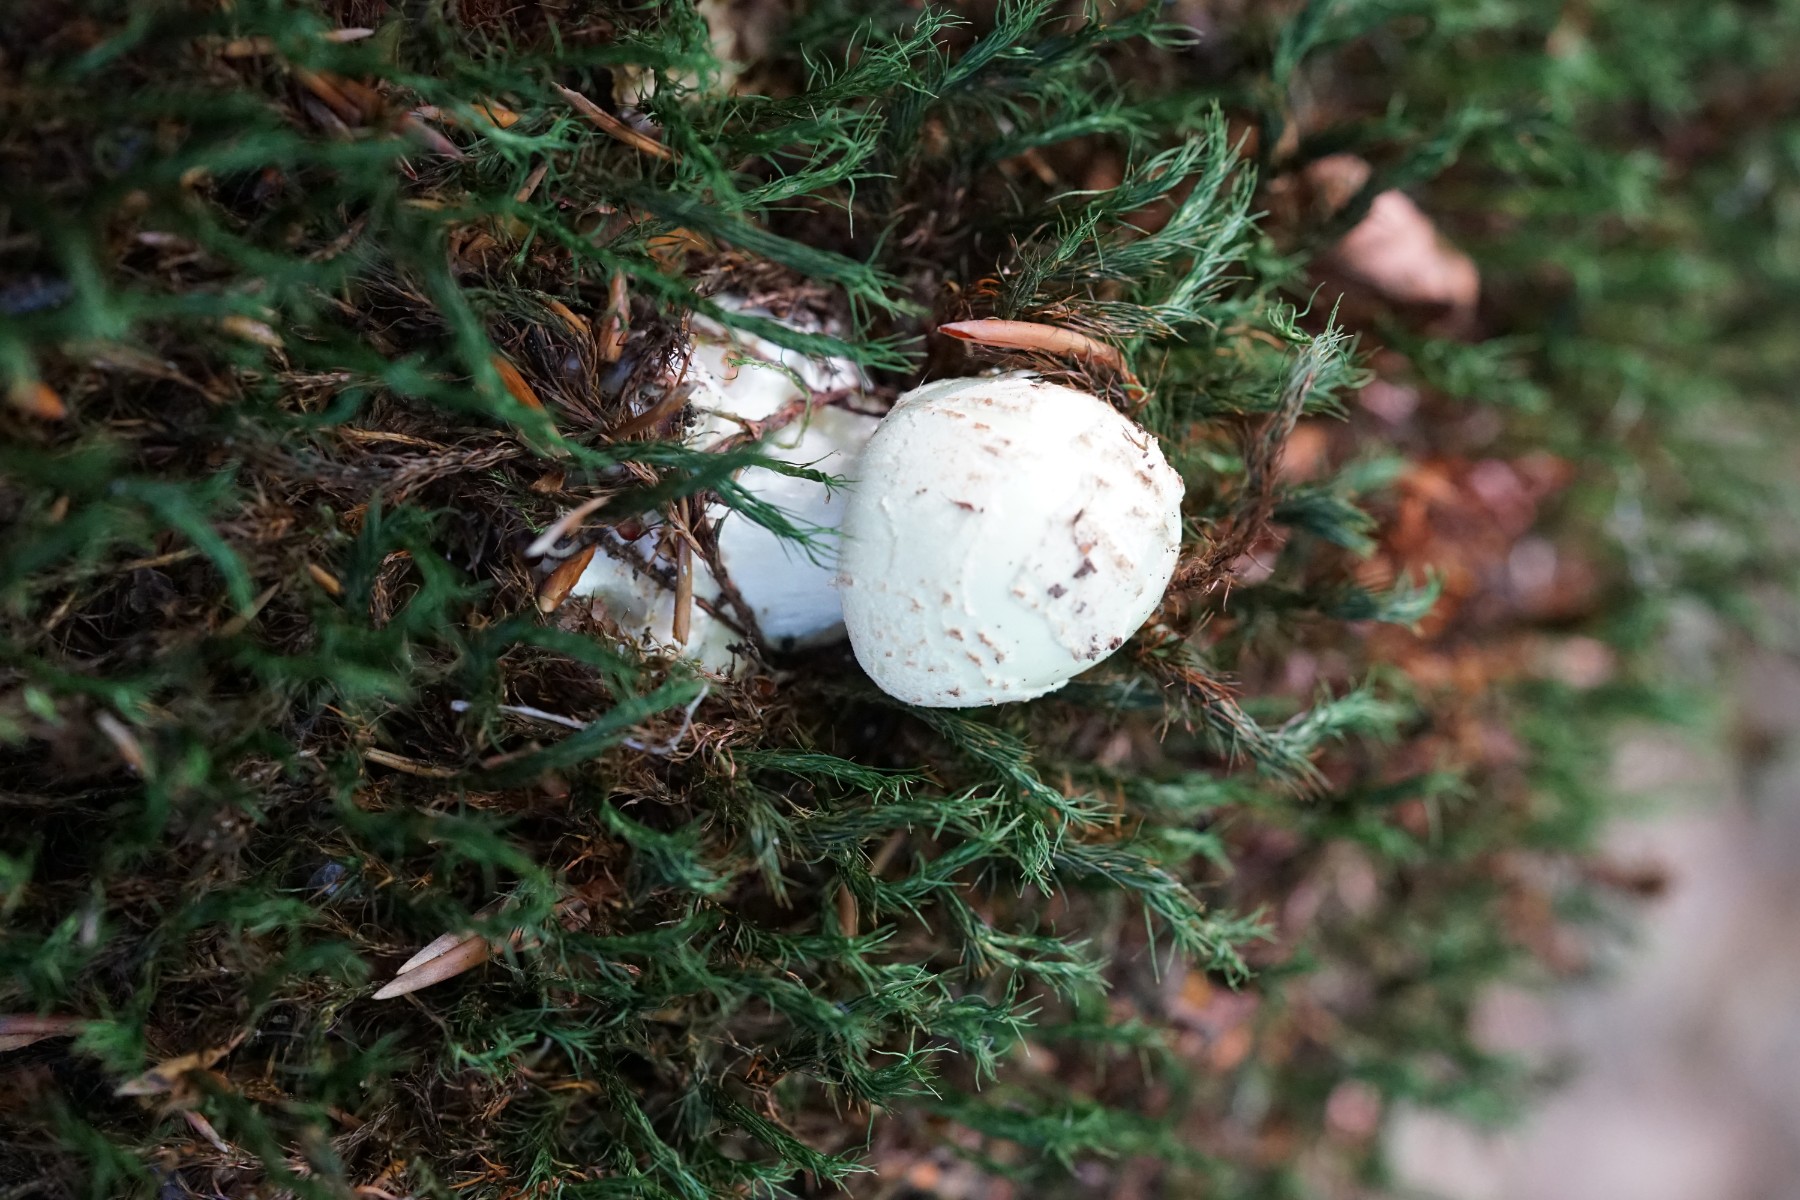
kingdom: Fungi
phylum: Basidiomycota
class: Agaricomycetes
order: Agaricales
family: Amanitaceae
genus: Amanita
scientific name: Amanita citrina
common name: False death-cap
